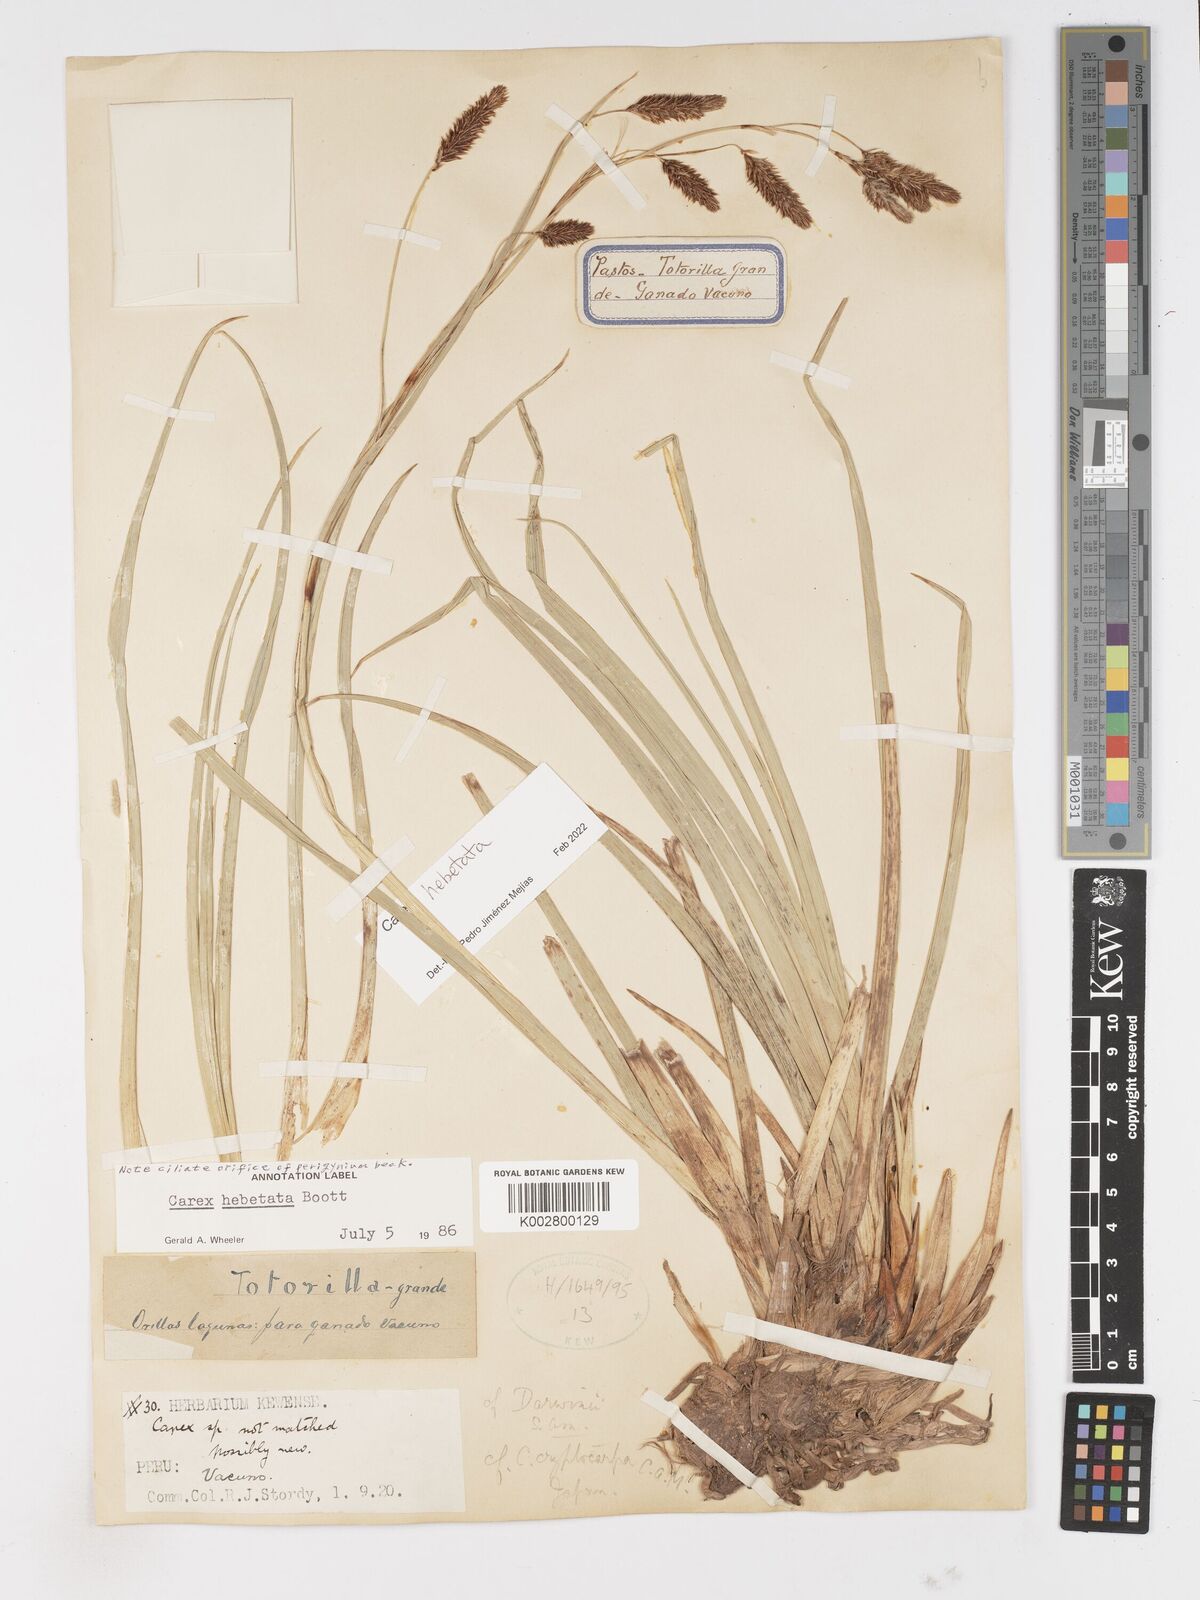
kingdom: Plantae
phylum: Tracheophyta
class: Liliopsida
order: Poales
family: Cyperaceae
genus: Carex
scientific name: Carex hebetata
